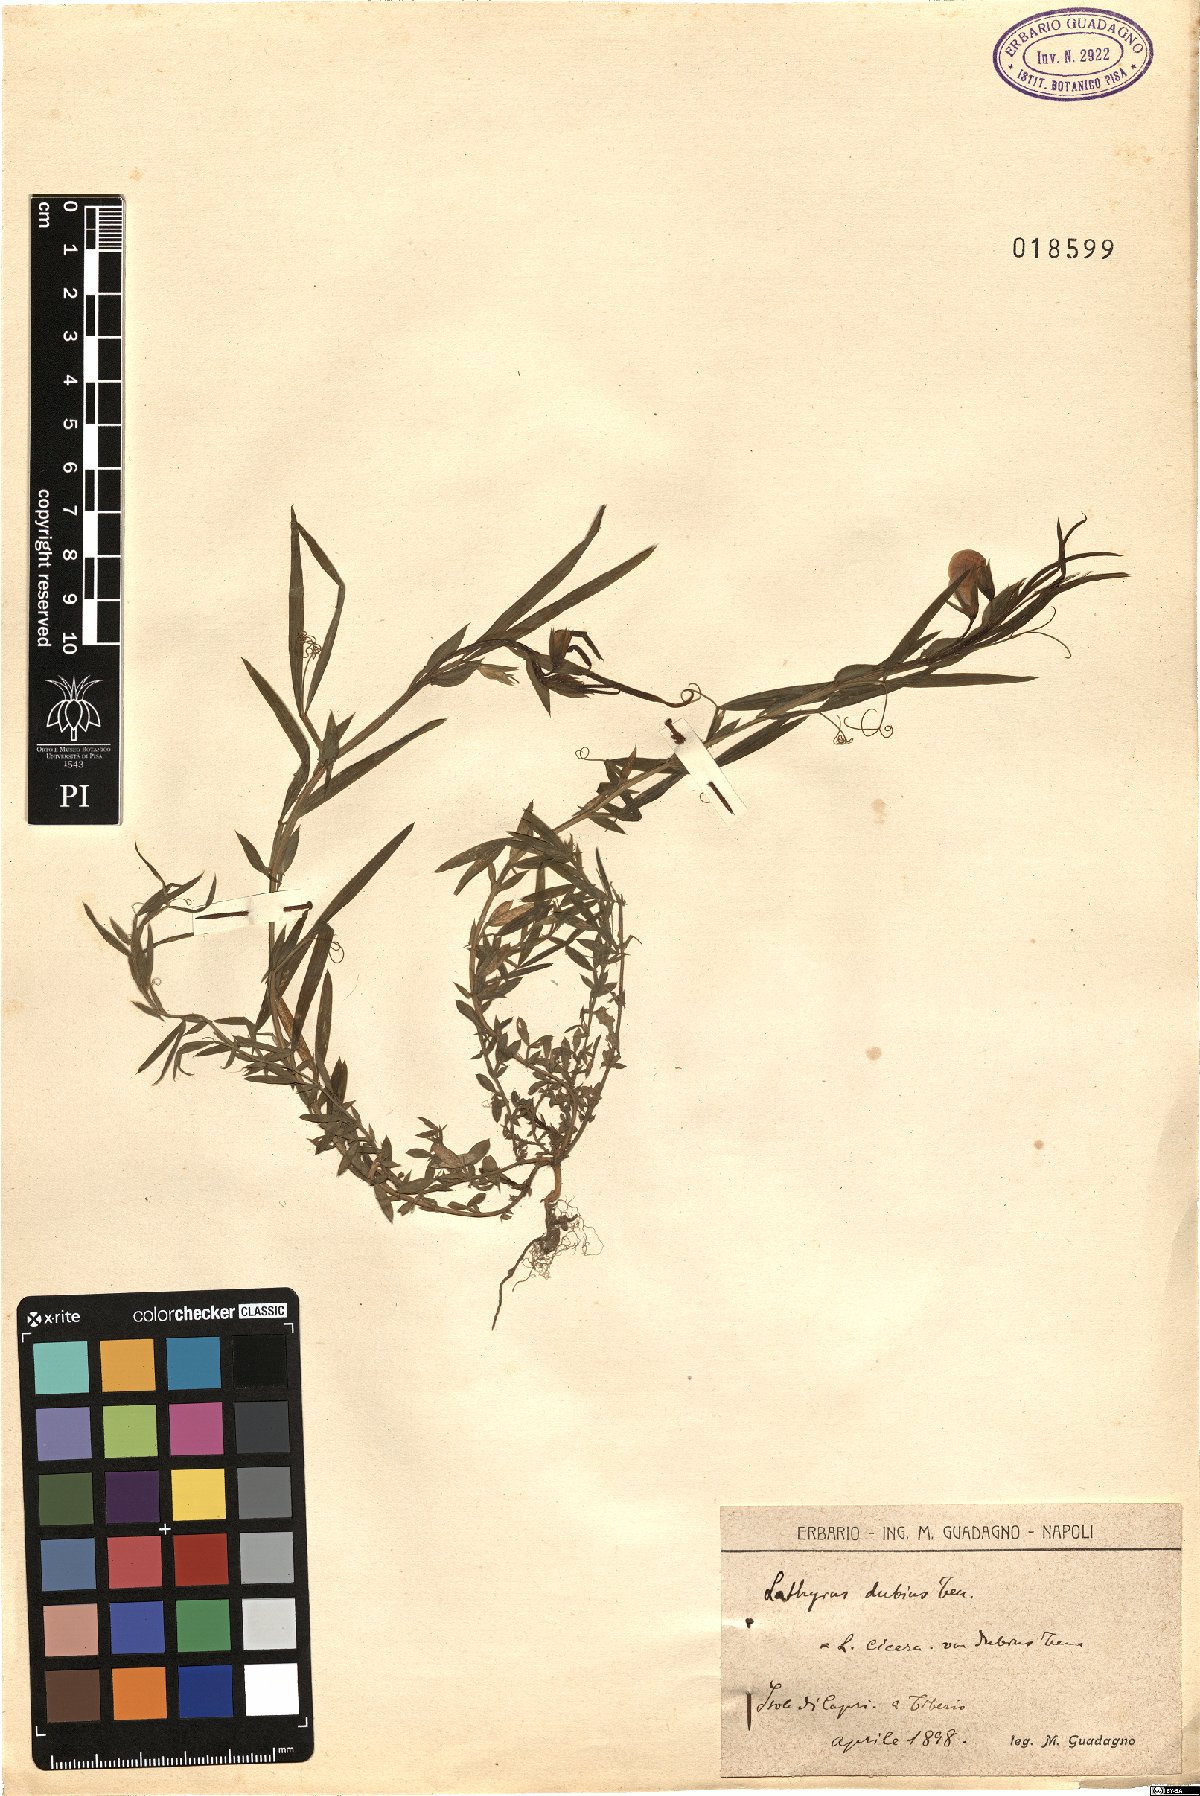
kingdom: Plantae
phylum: Tracheophyta
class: Magnoliopsida
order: Fabales
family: Fabaceae
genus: Lathyrus
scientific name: Lathyrus cicera
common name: Red vetchling
